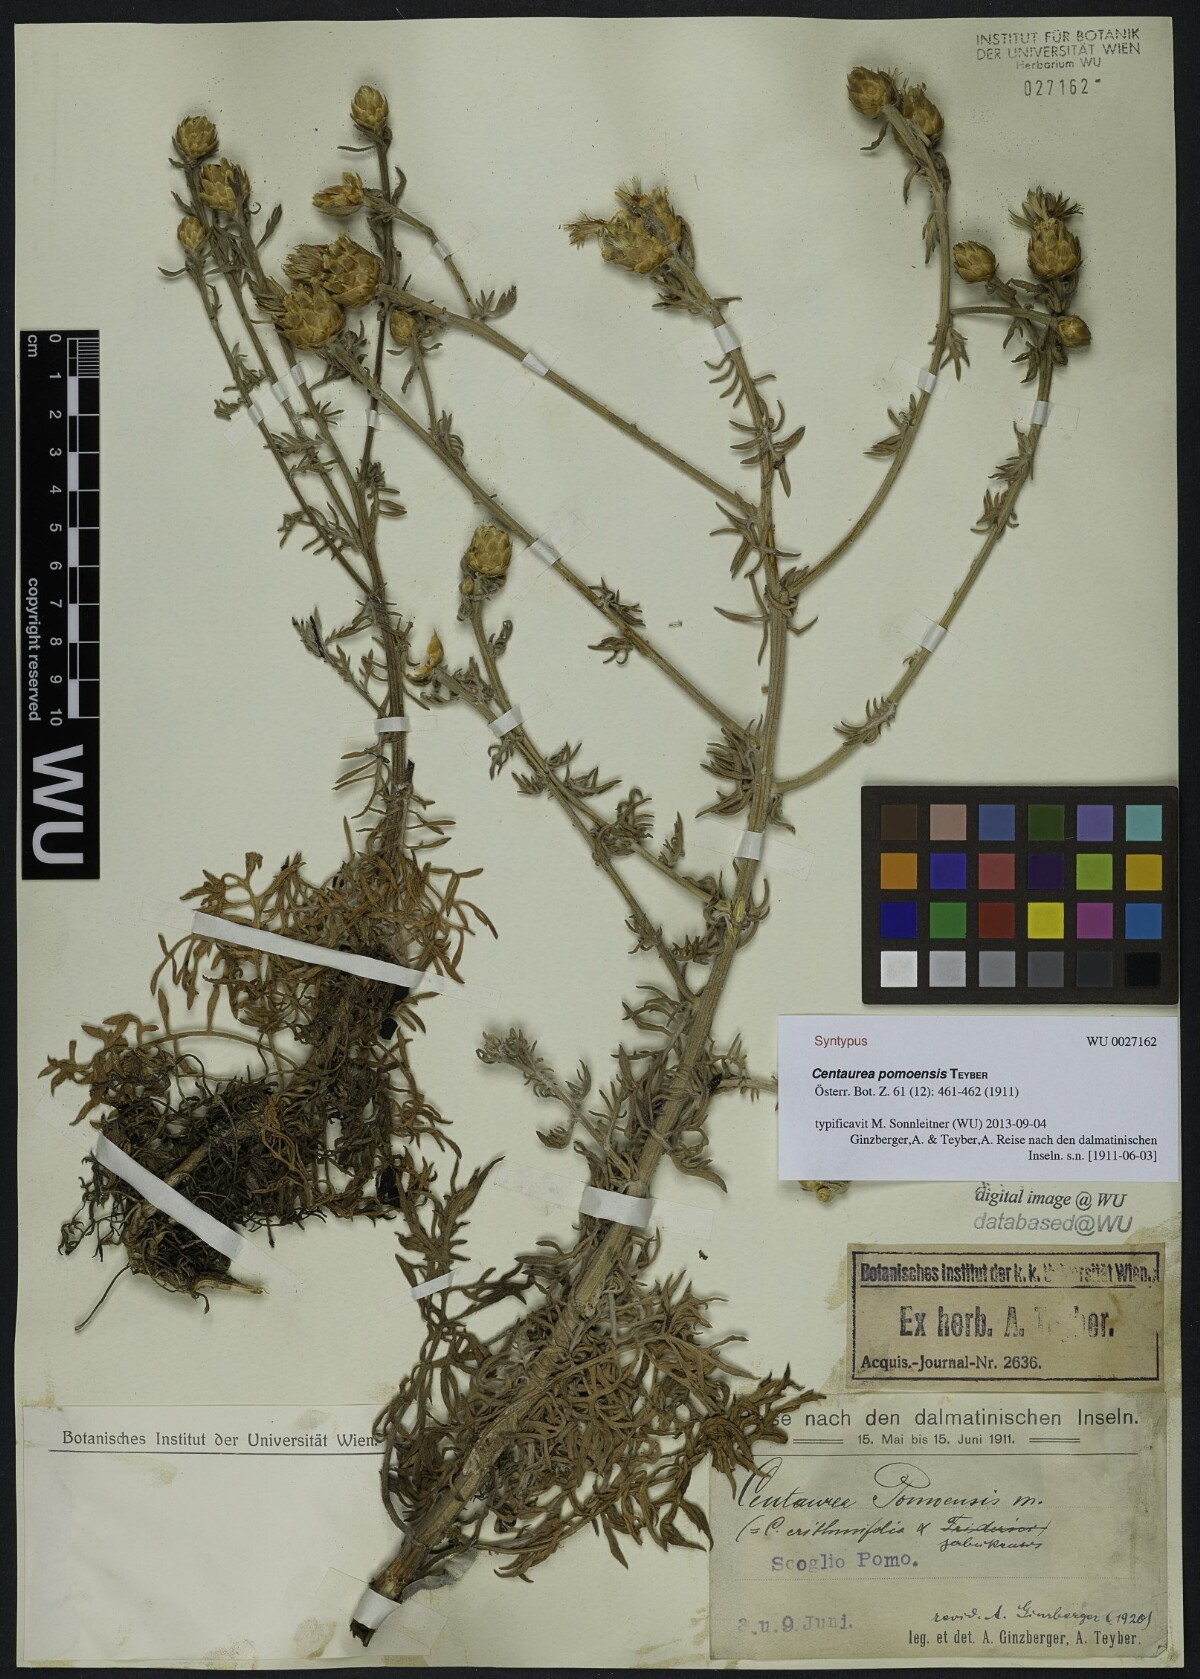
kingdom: Plantae
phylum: Tracheophyta
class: Magnoliopsida
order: Asterales
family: Asteraceae
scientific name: Asteraceae
